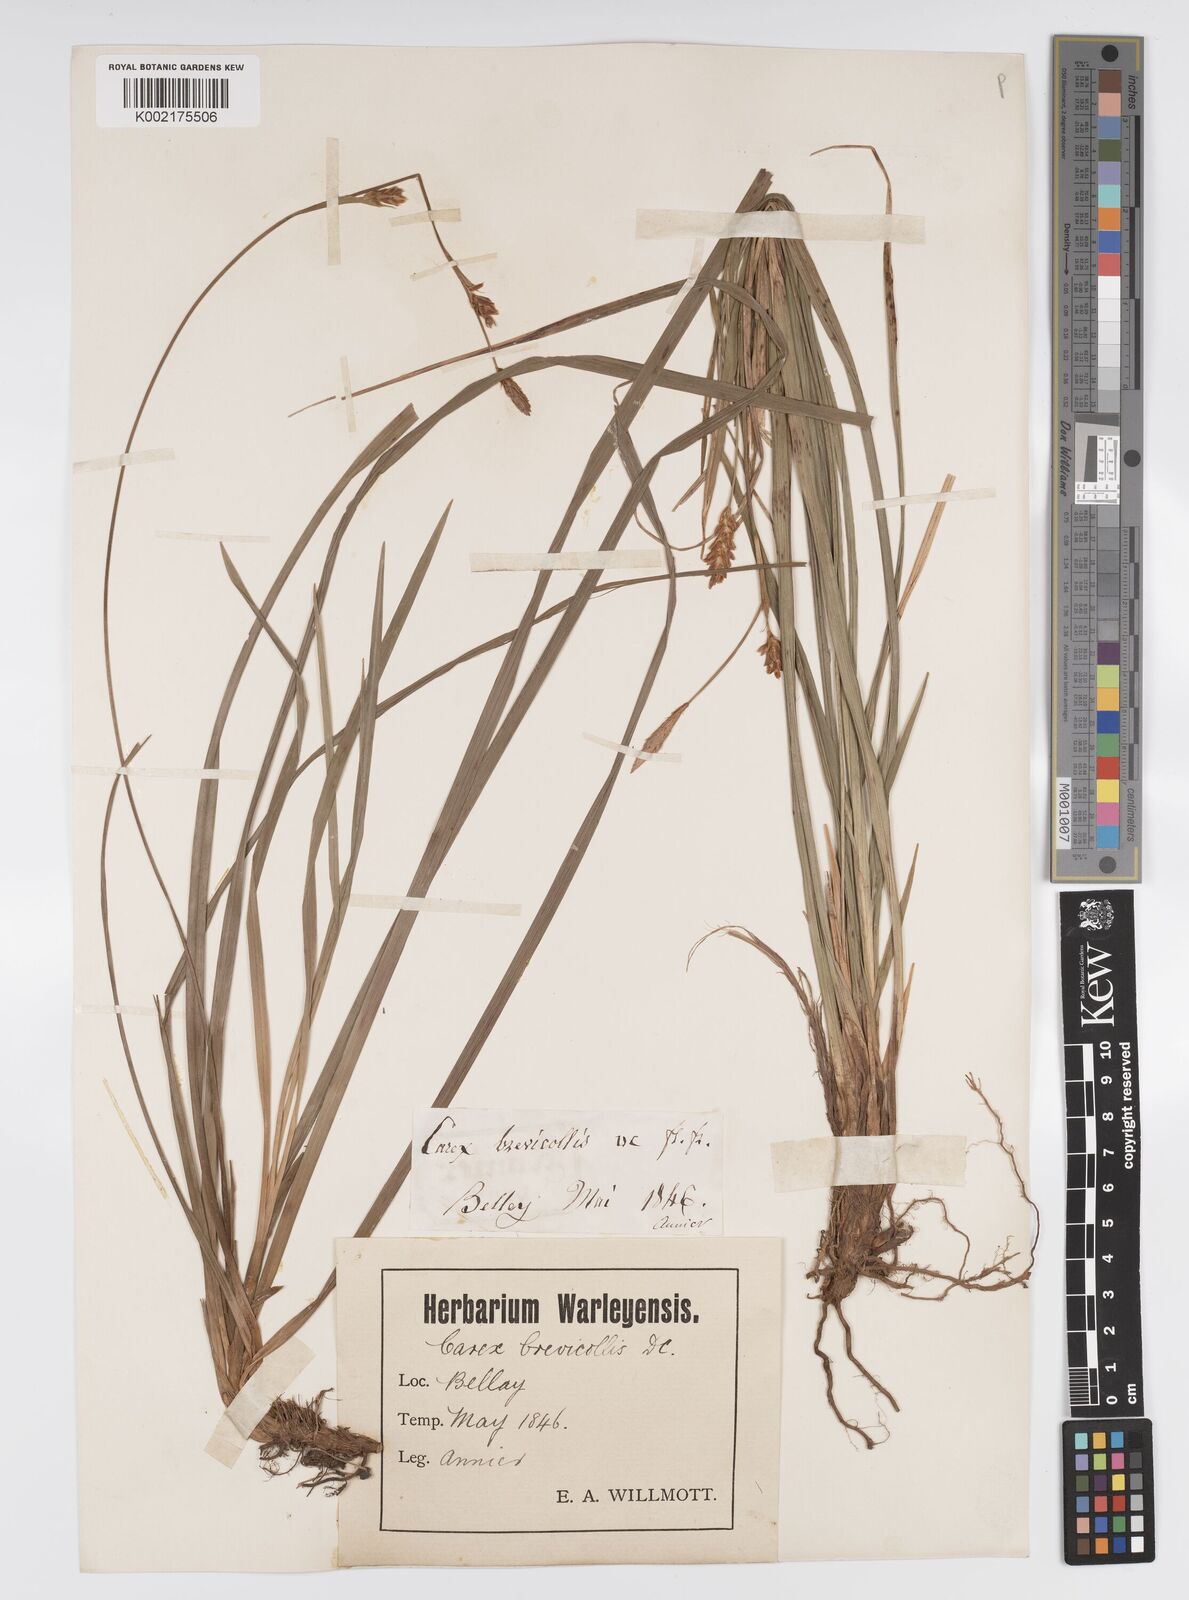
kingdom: Plantae
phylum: Tracheophyta
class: Liliopsida
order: Poales
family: Cyperaceae
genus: Carex
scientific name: Carex brevicollis
